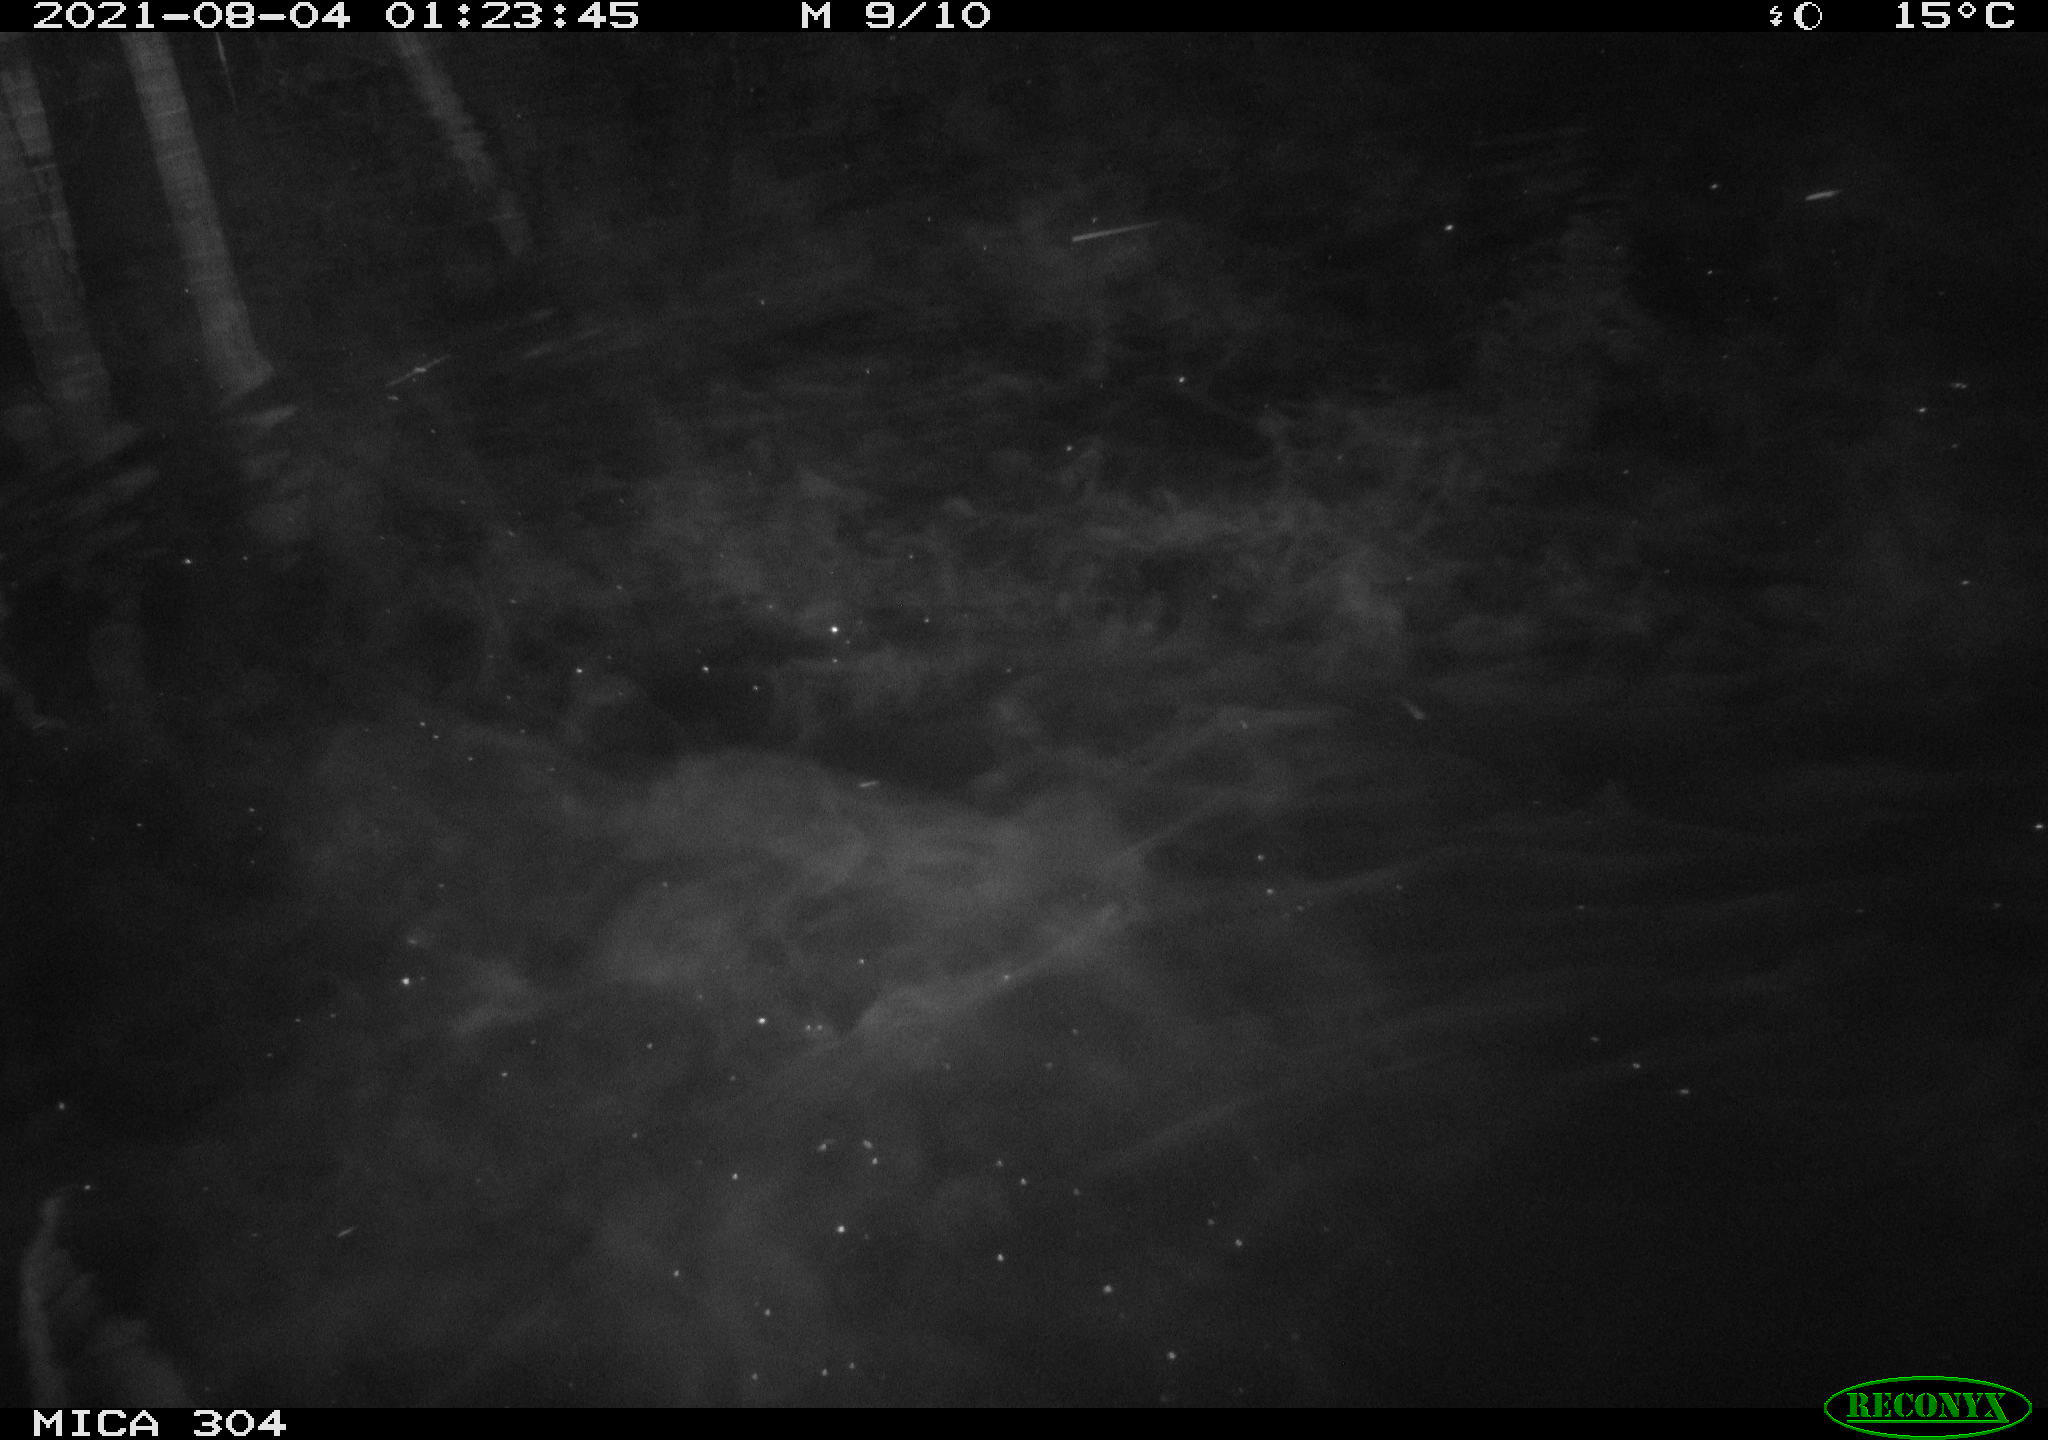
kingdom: Animalia
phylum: Chordata
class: Mammalia
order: Rodentia
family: Muridae
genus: Rattus
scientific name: Rattus norvegicus
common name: Brown rat
